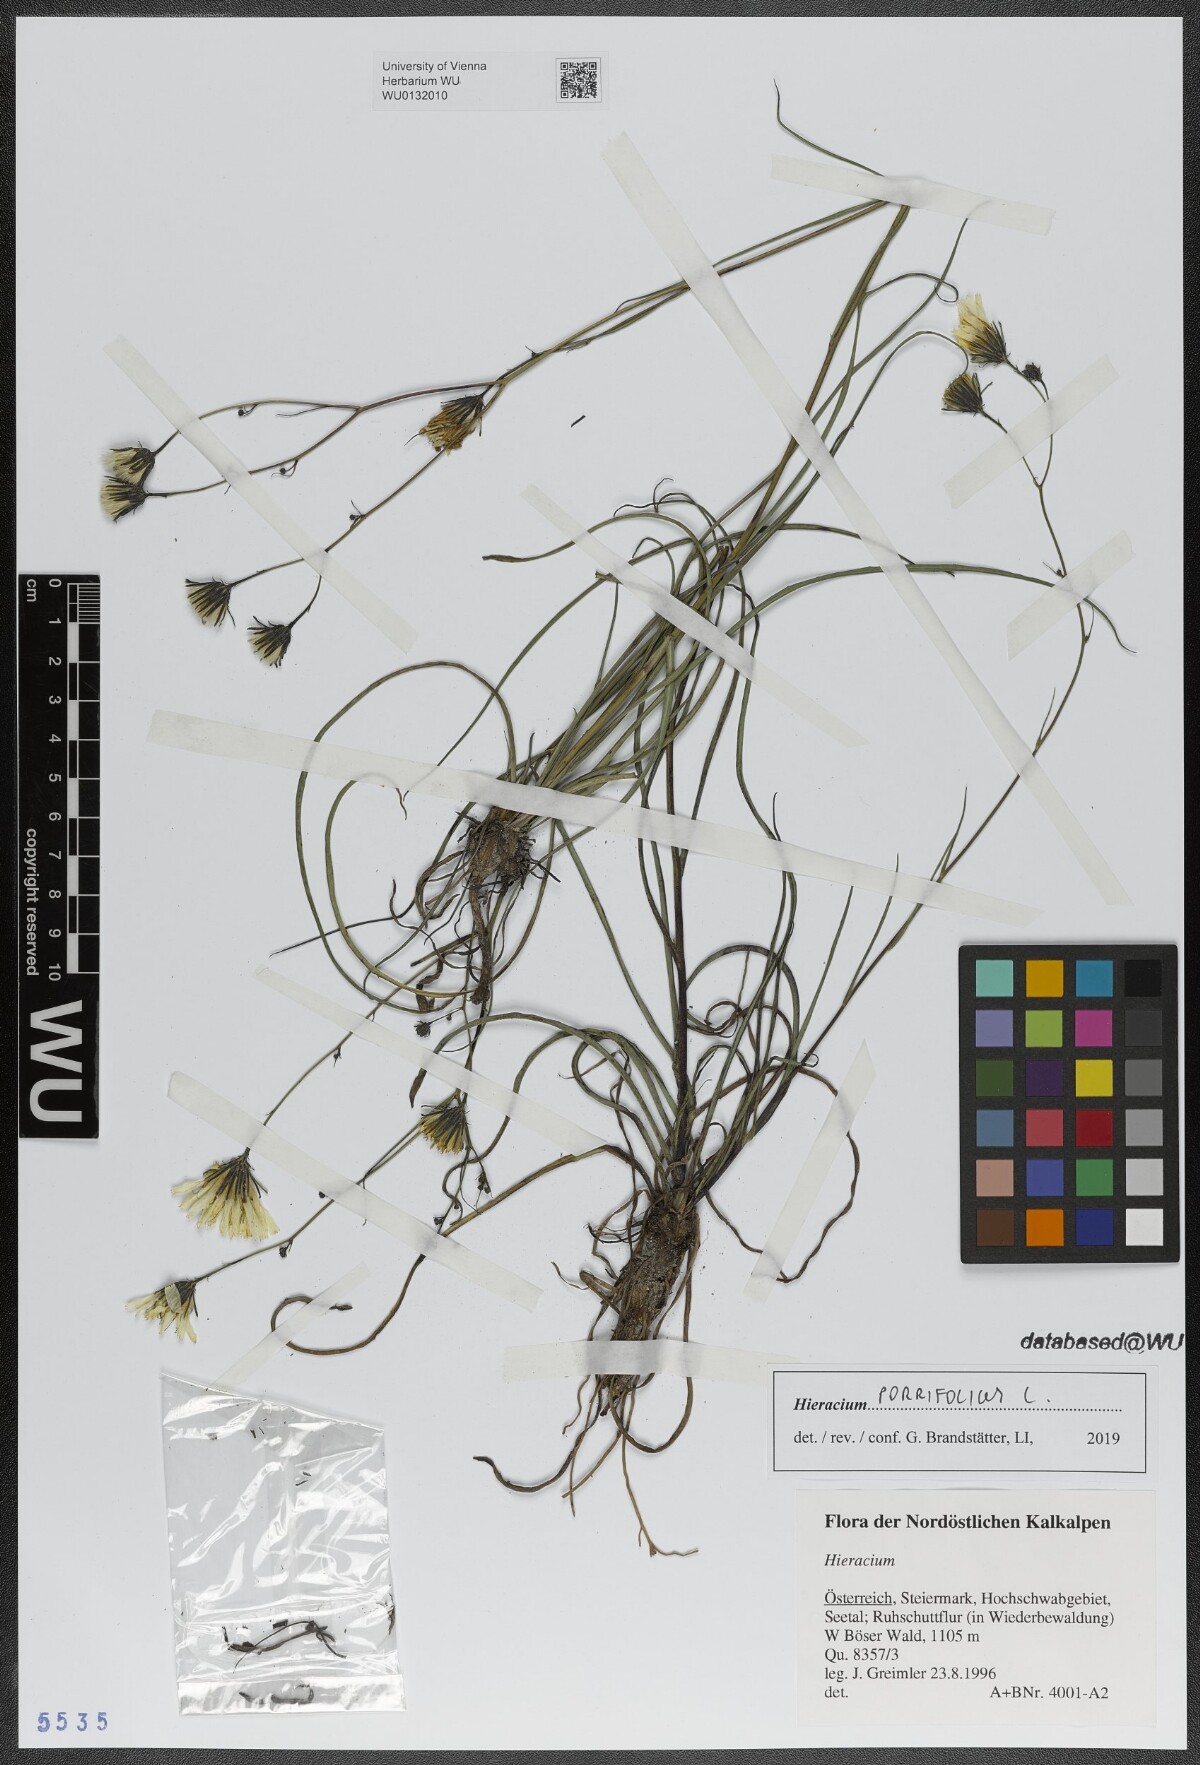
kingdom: Plantae
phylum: Tracheophyta
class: Magnoliopsida
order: Asterales
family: Asteraceae
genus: Hieracium
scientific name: Hieracium porrifolium
